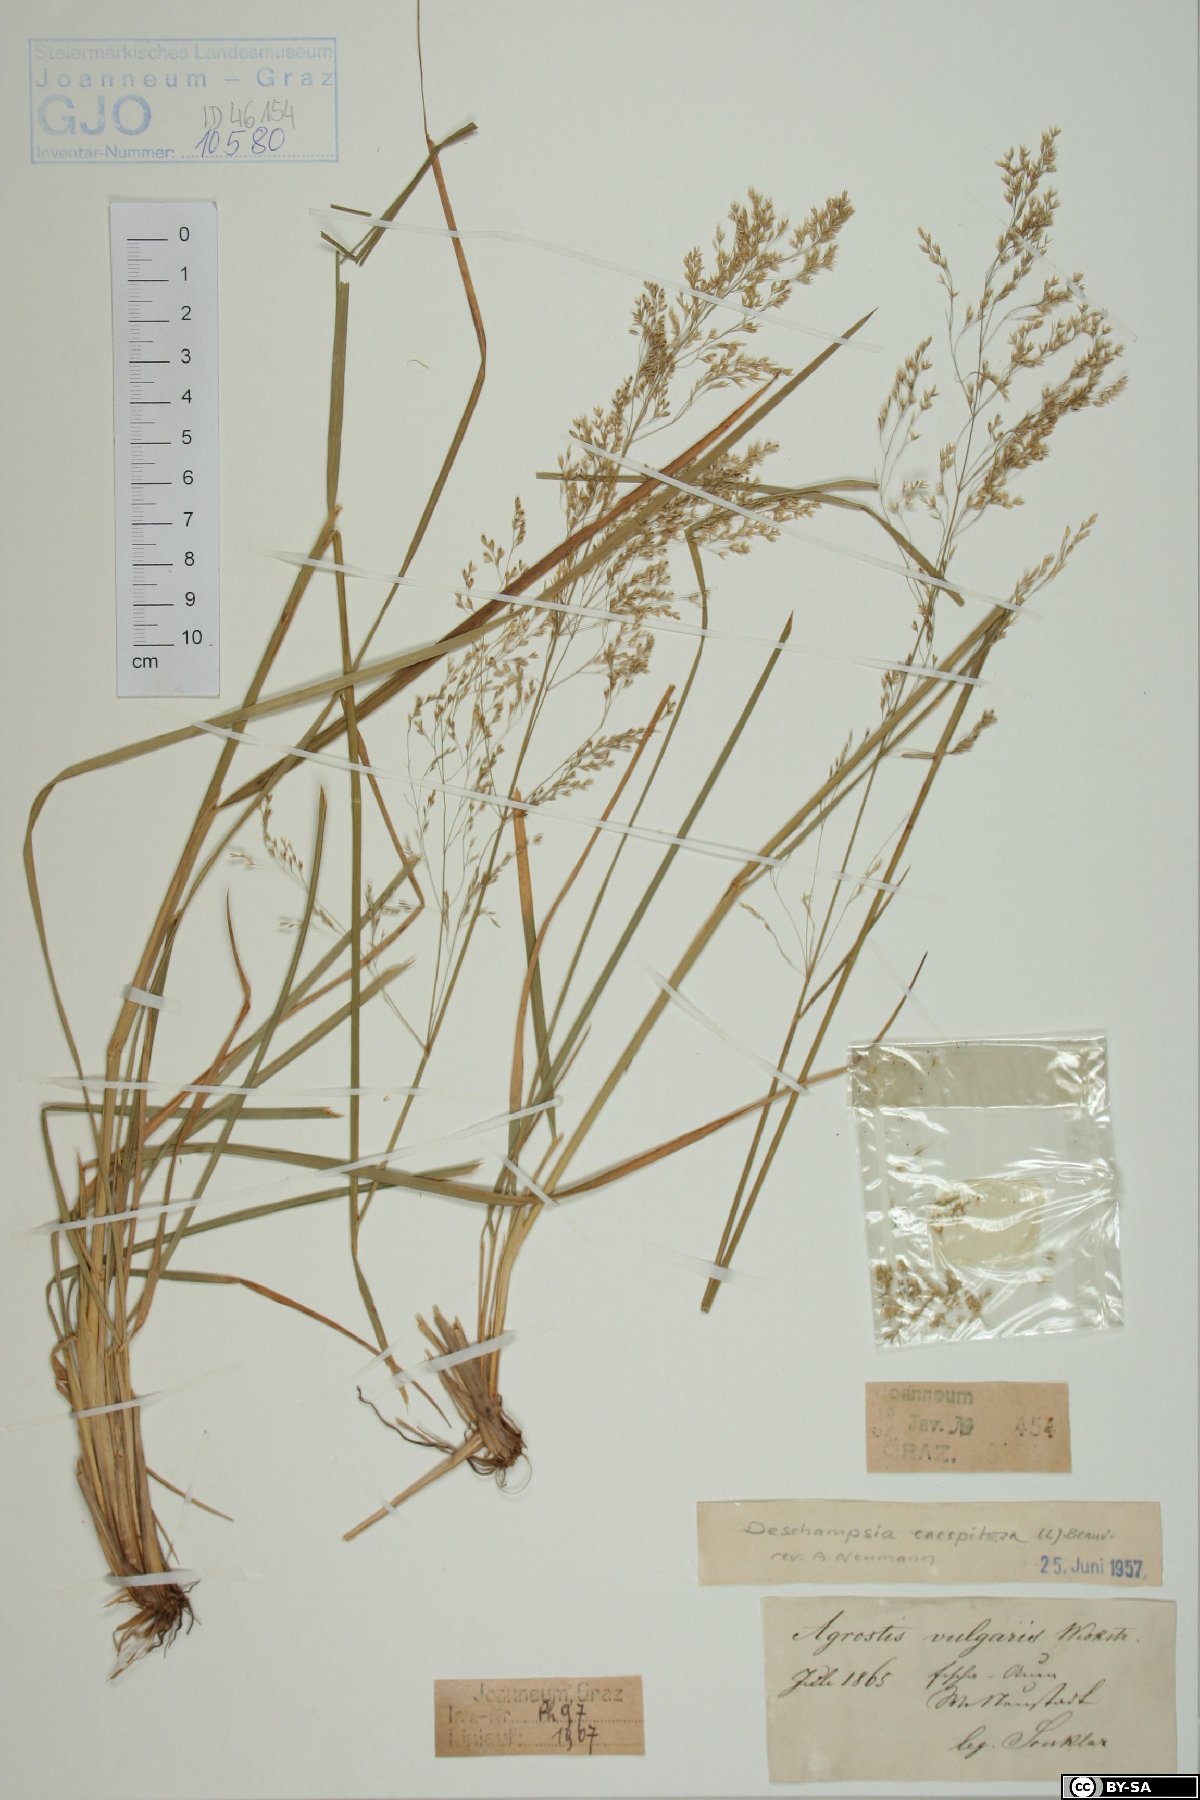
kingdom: Plantae
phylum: Tracheophyta
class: Liliopsida
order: Poales
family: Poaceae
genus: Deschampsia
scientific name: Deschampsia cespitosa
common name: Tufted hair-grass
